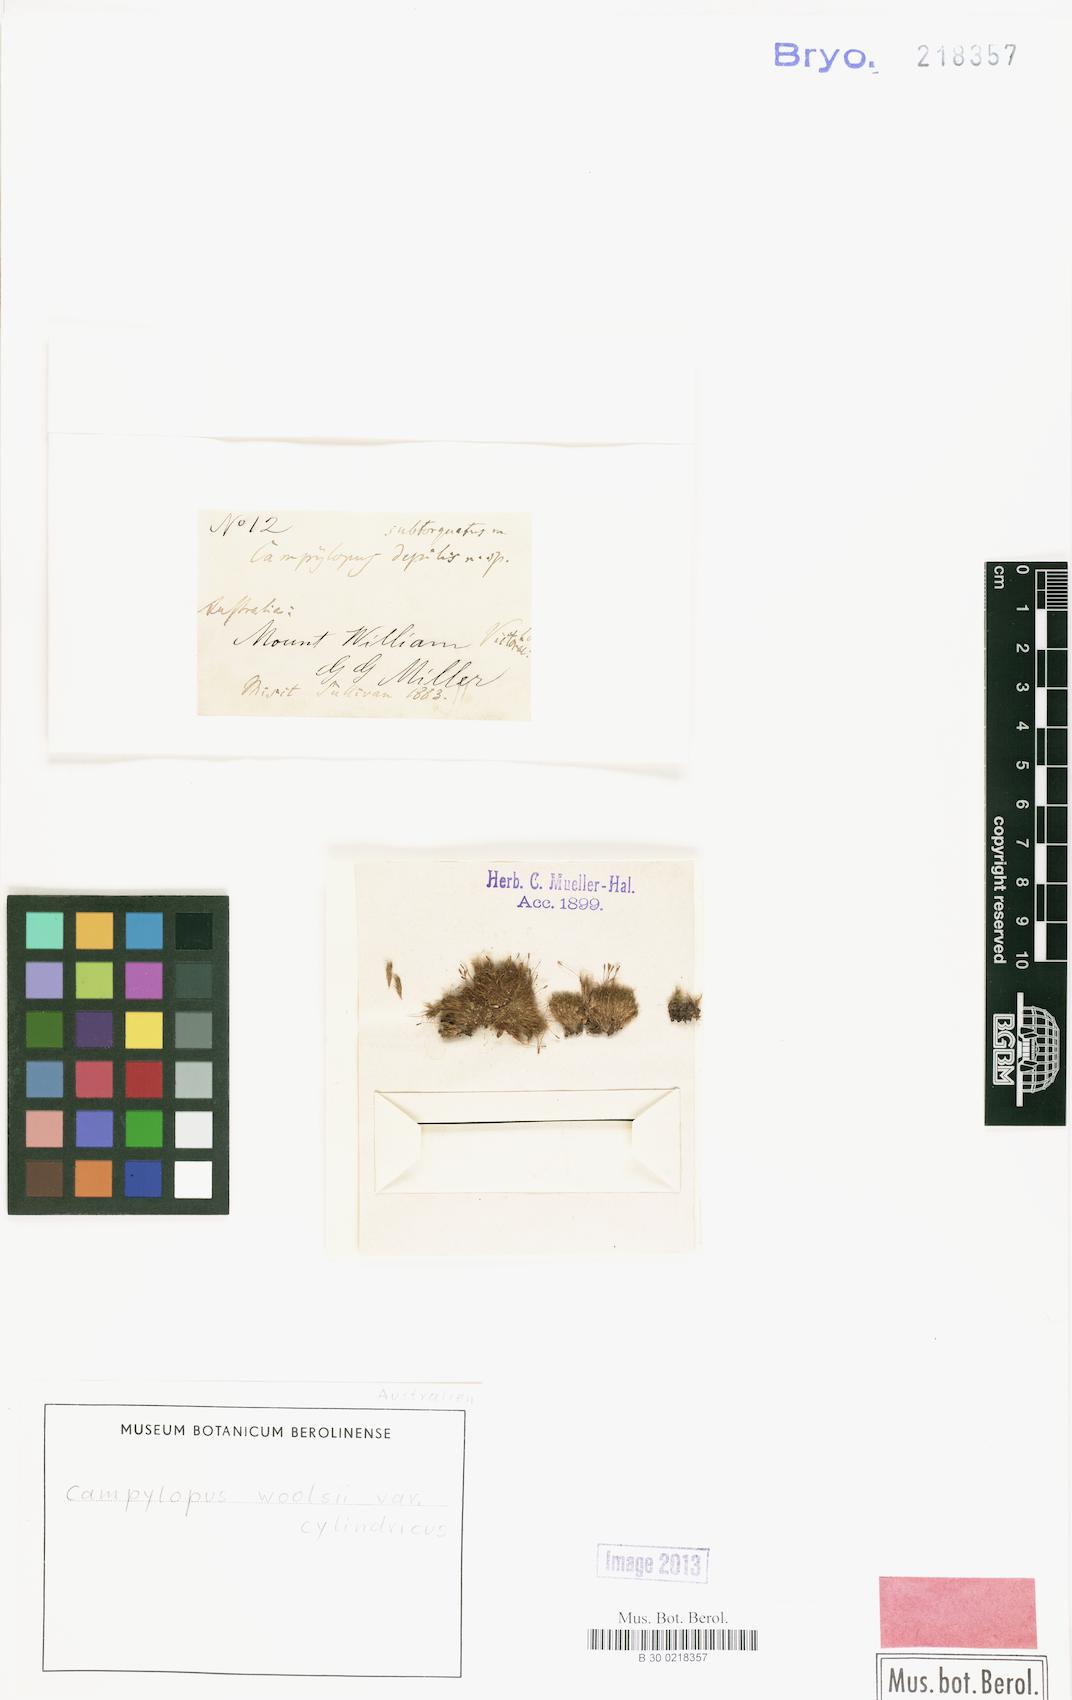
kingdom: Plantae
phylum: Bryophyta
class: Bryopsida
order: Dicranales
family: Leucobryaceae
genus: Campylopus
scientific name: Campylopus pyriformis
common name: Dwarf swan-neck moss
